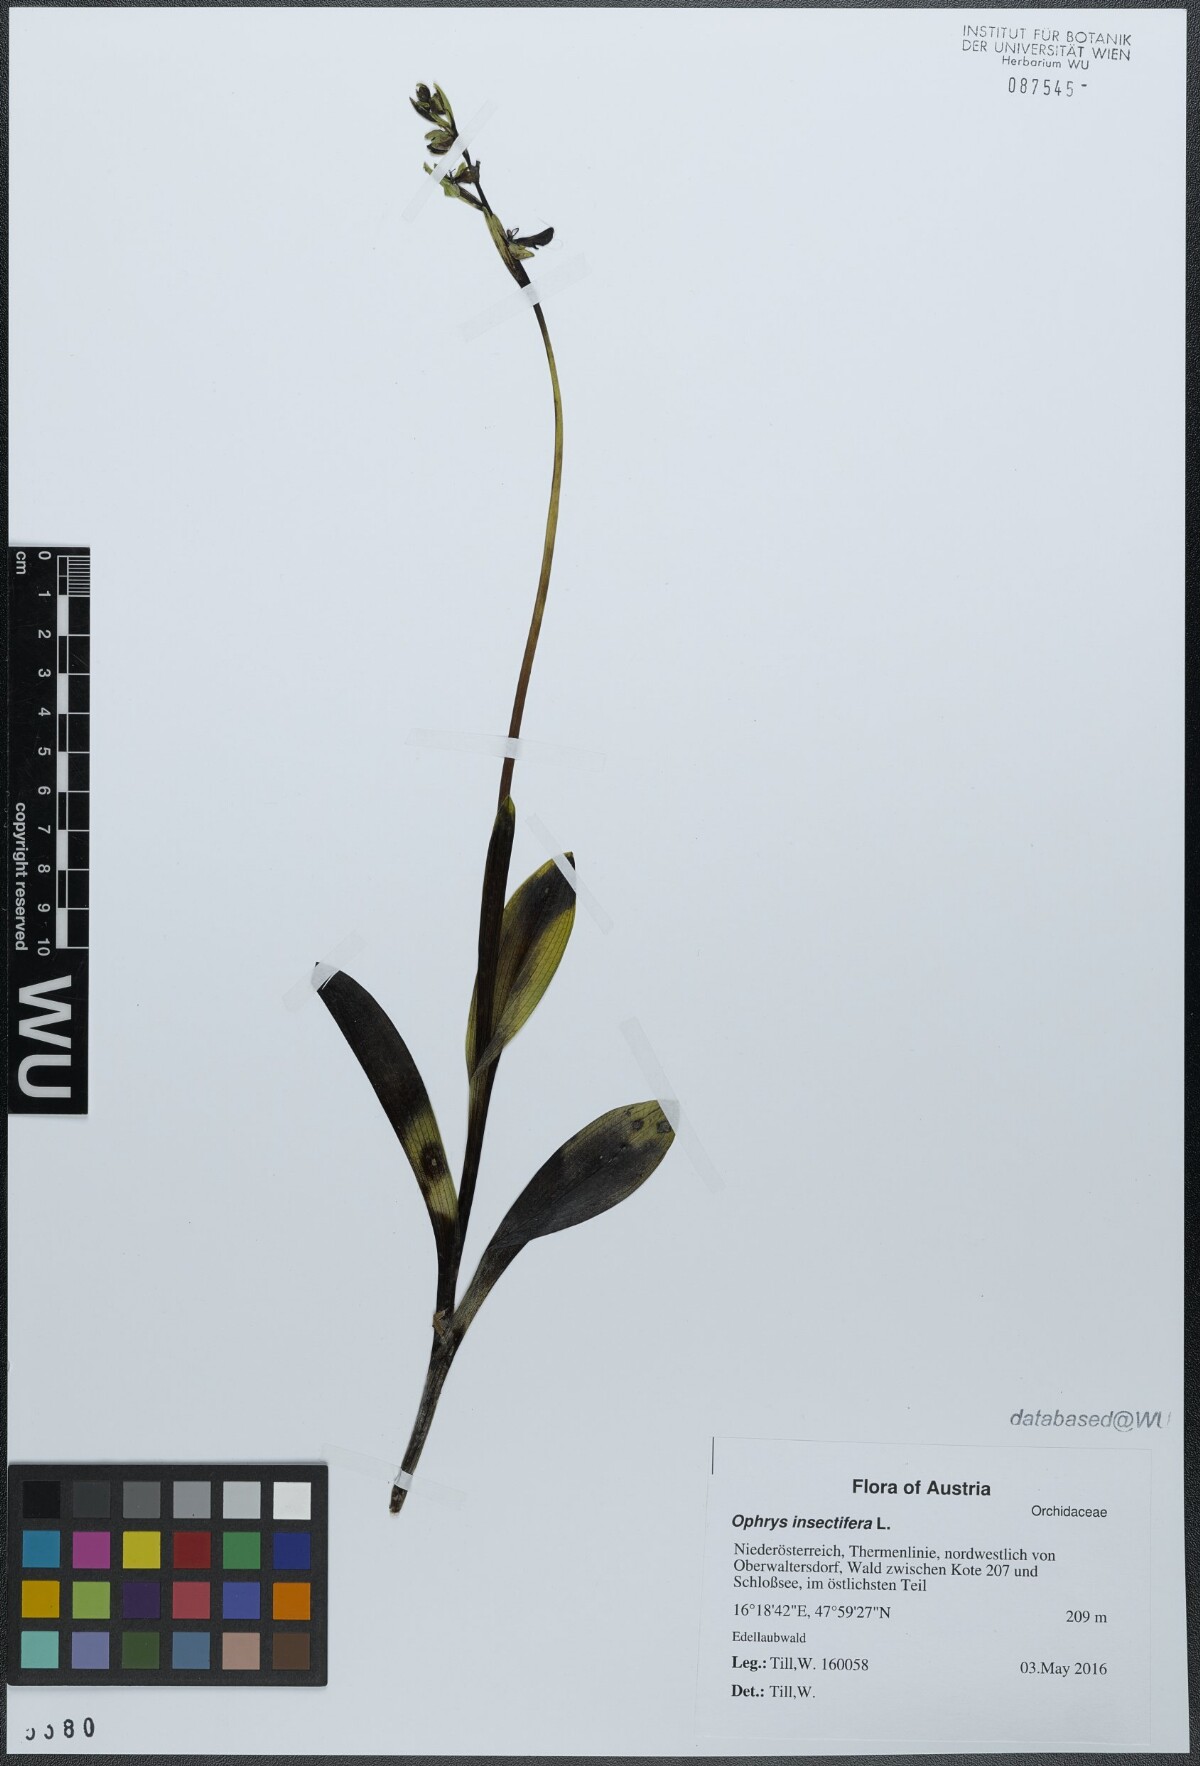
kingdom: Plantae
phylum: Tracheophyta
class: Liliopsida
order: Asparagales
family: Orchidaceae
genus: Ophrys
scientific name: Ophrys insectifera
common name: Fly orchid
